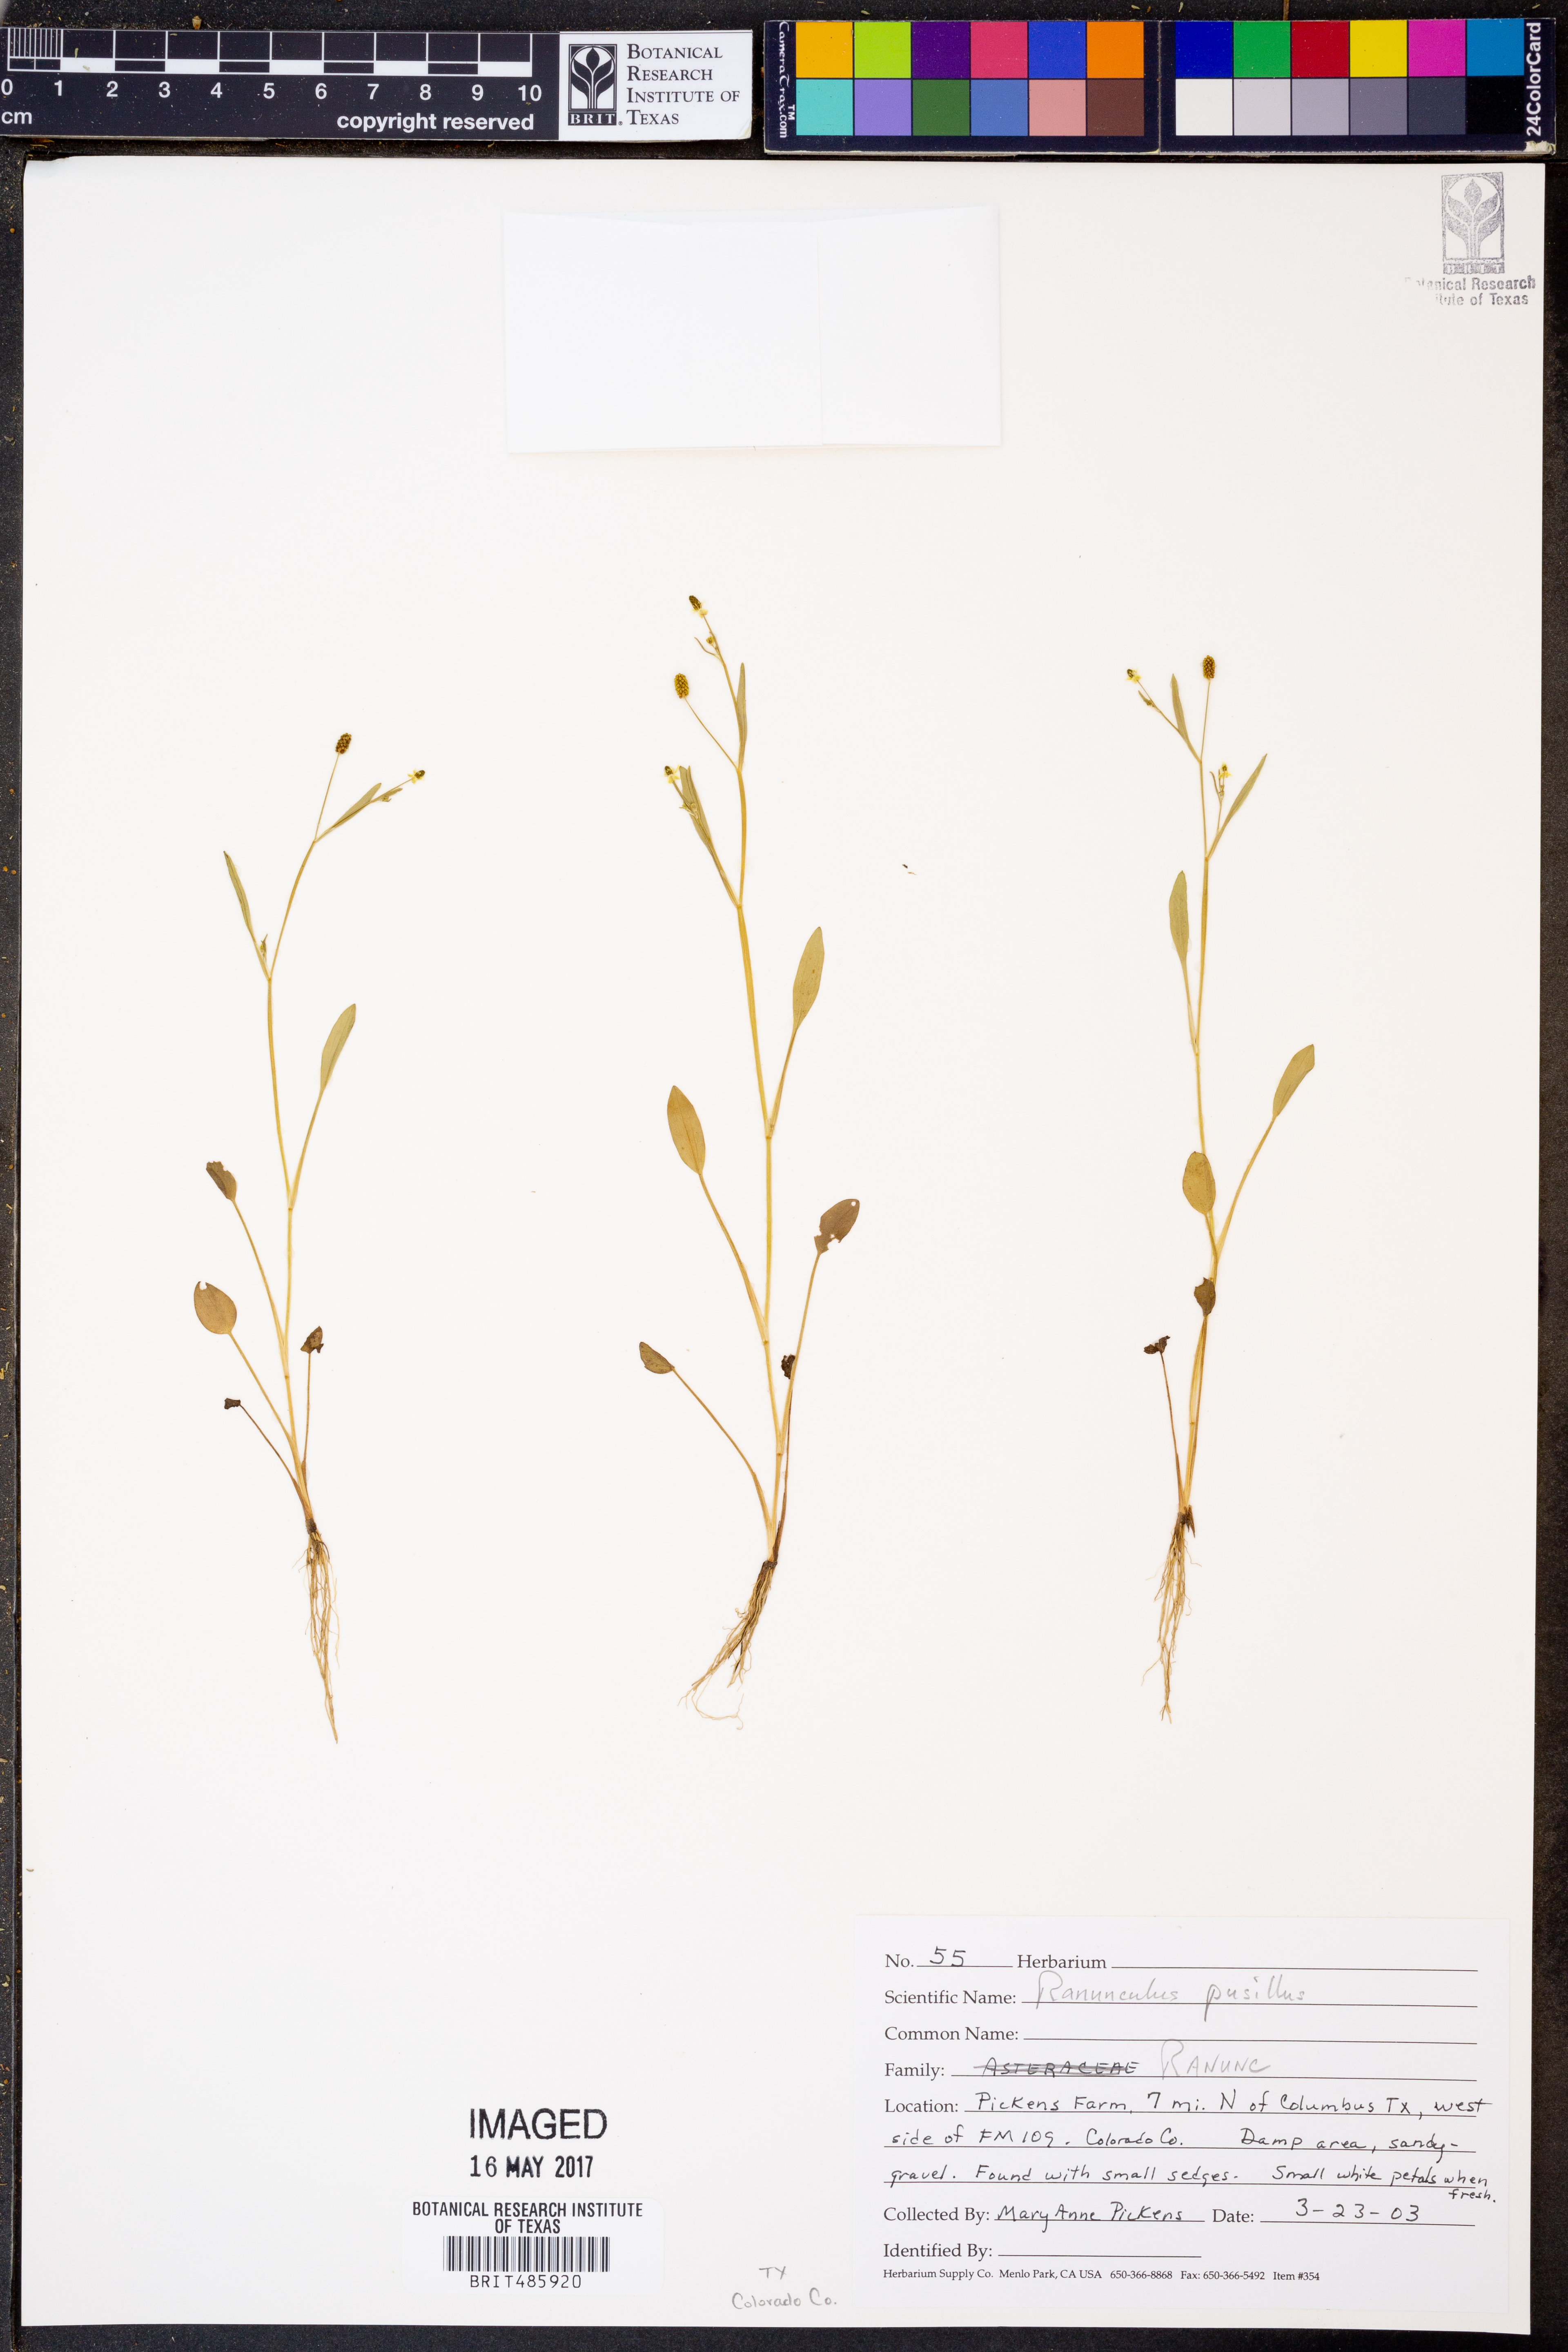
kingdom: Plantae
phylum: Tracheophyta
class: Magnoliopsida
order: Ranunculales
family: Ranunculaceae
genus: Ranunculus
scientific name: Ranunculus pusillus
